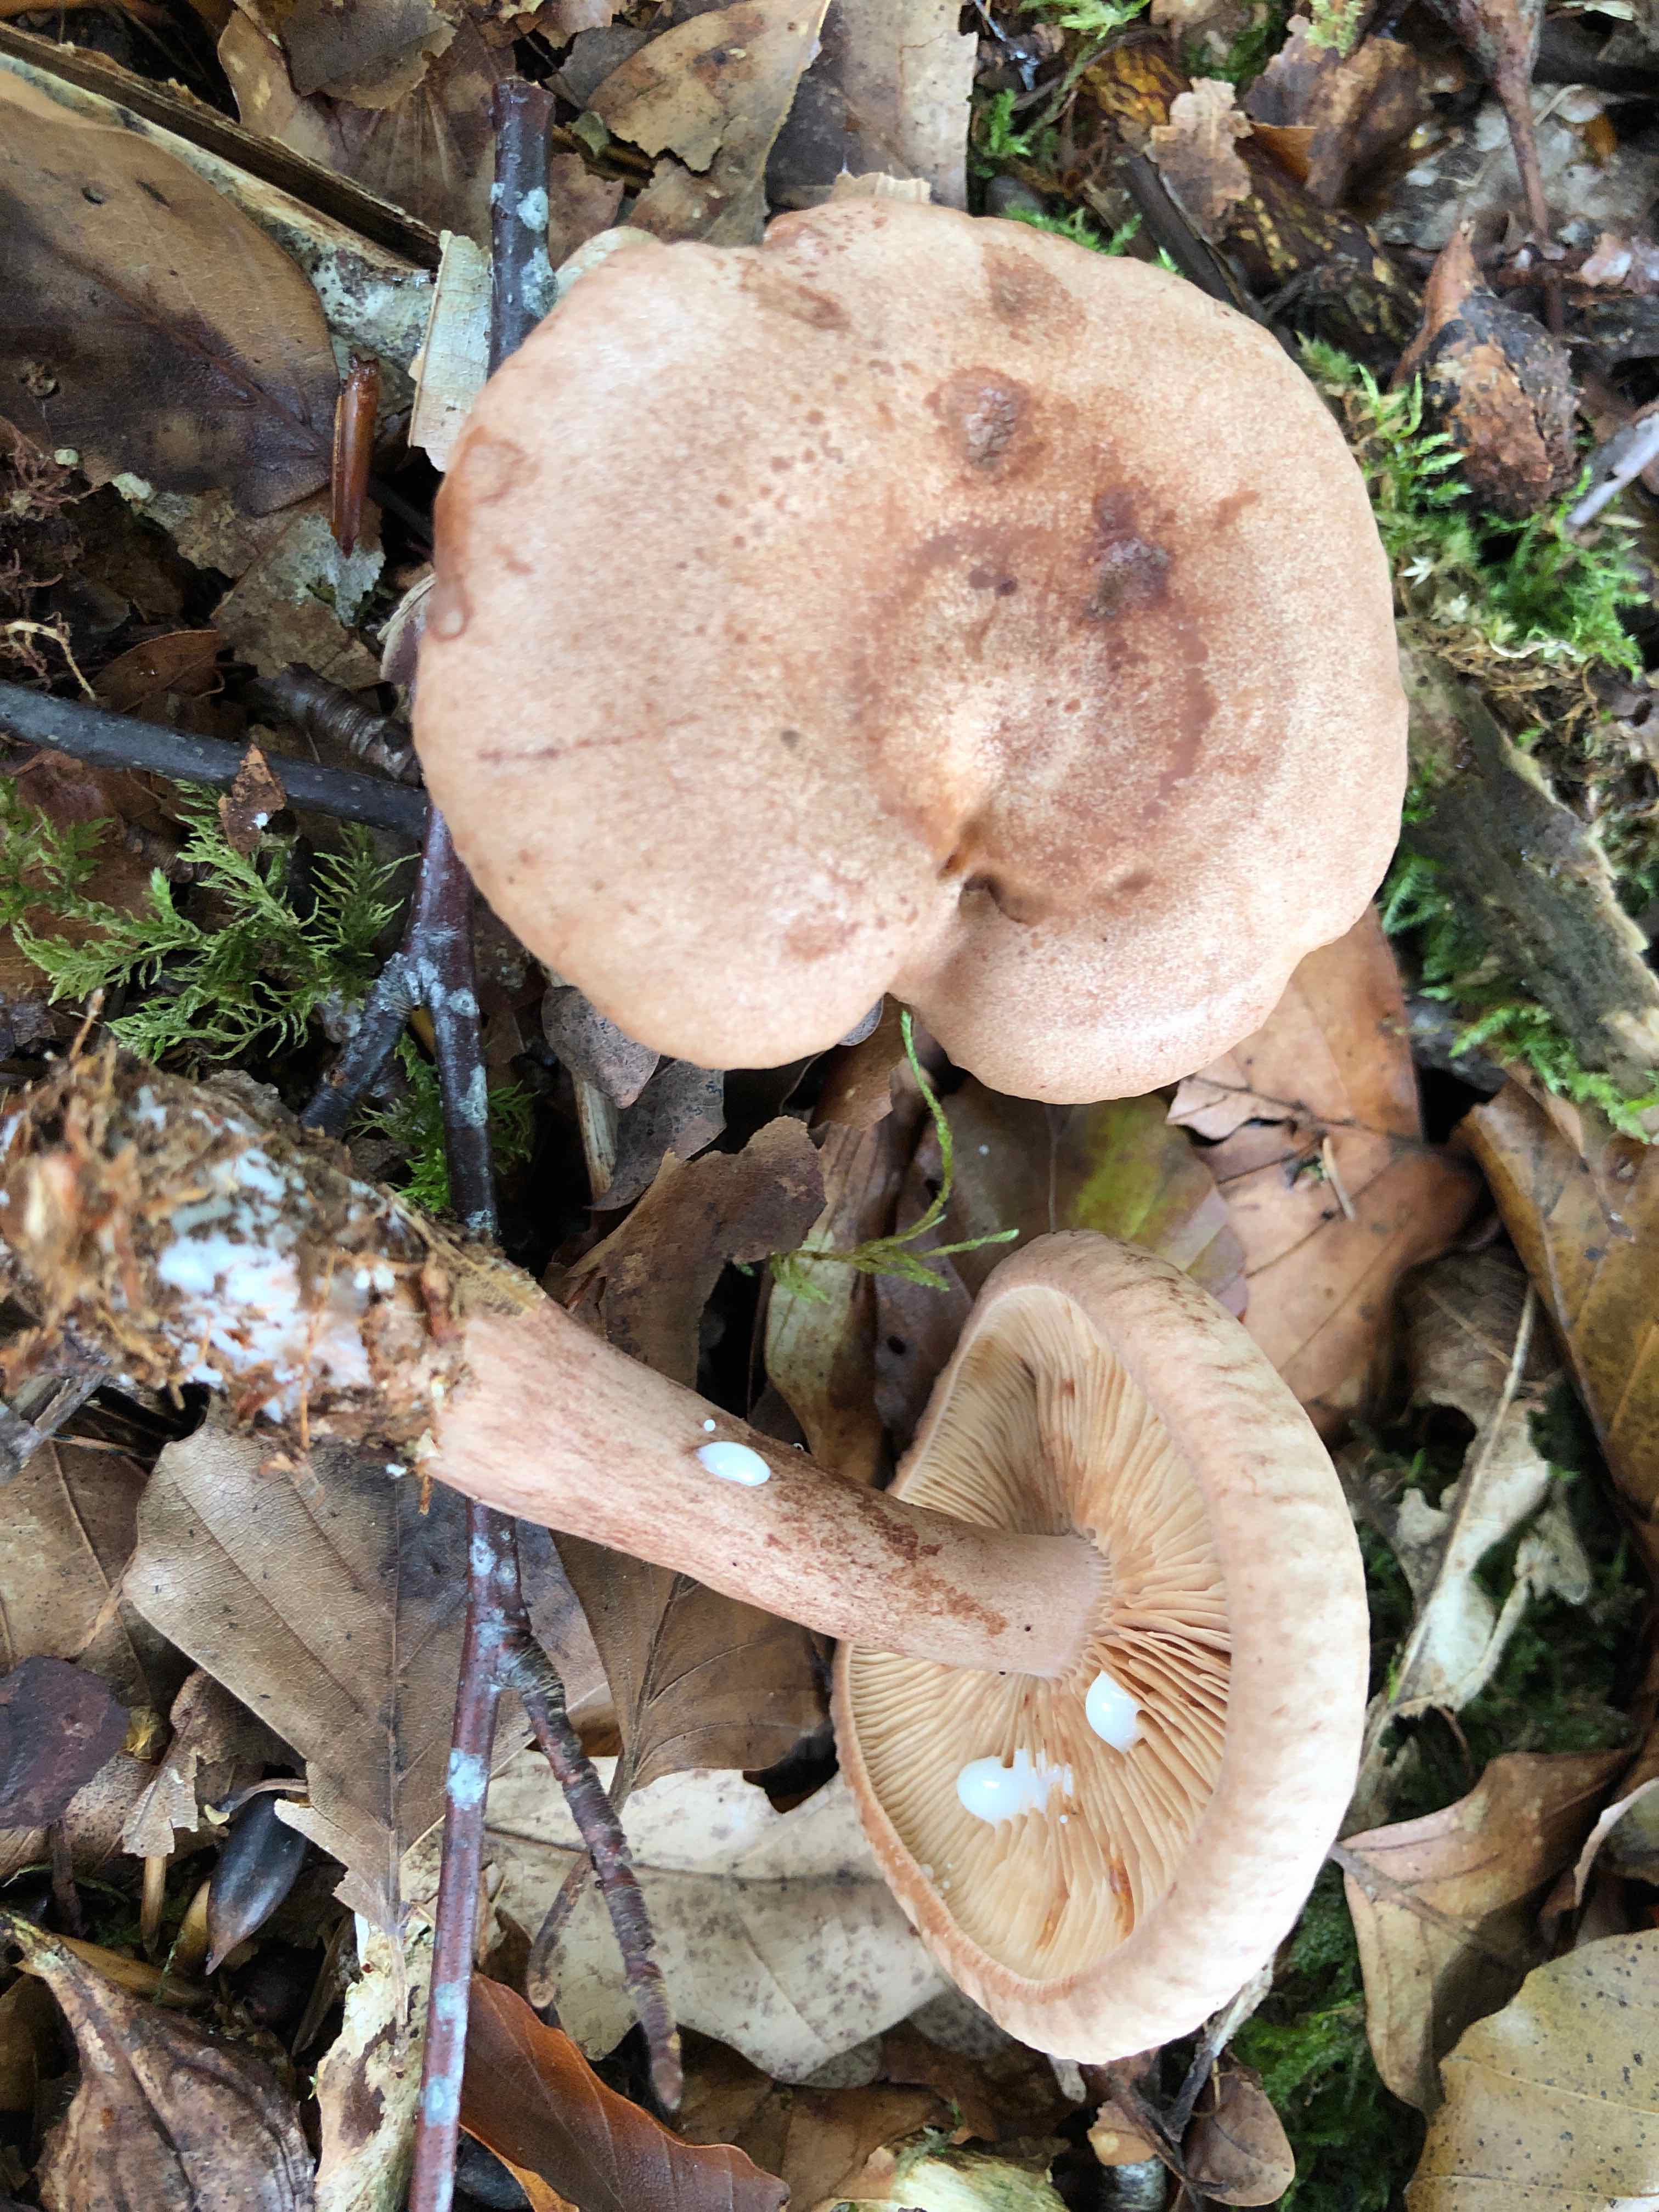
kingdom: Fungi
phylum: Basidiomycota
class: Agaricomycetes
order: Russulales
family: Russulaceae
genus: Lactarius
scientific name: Lactarius quietus
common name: ege-mælkehat
